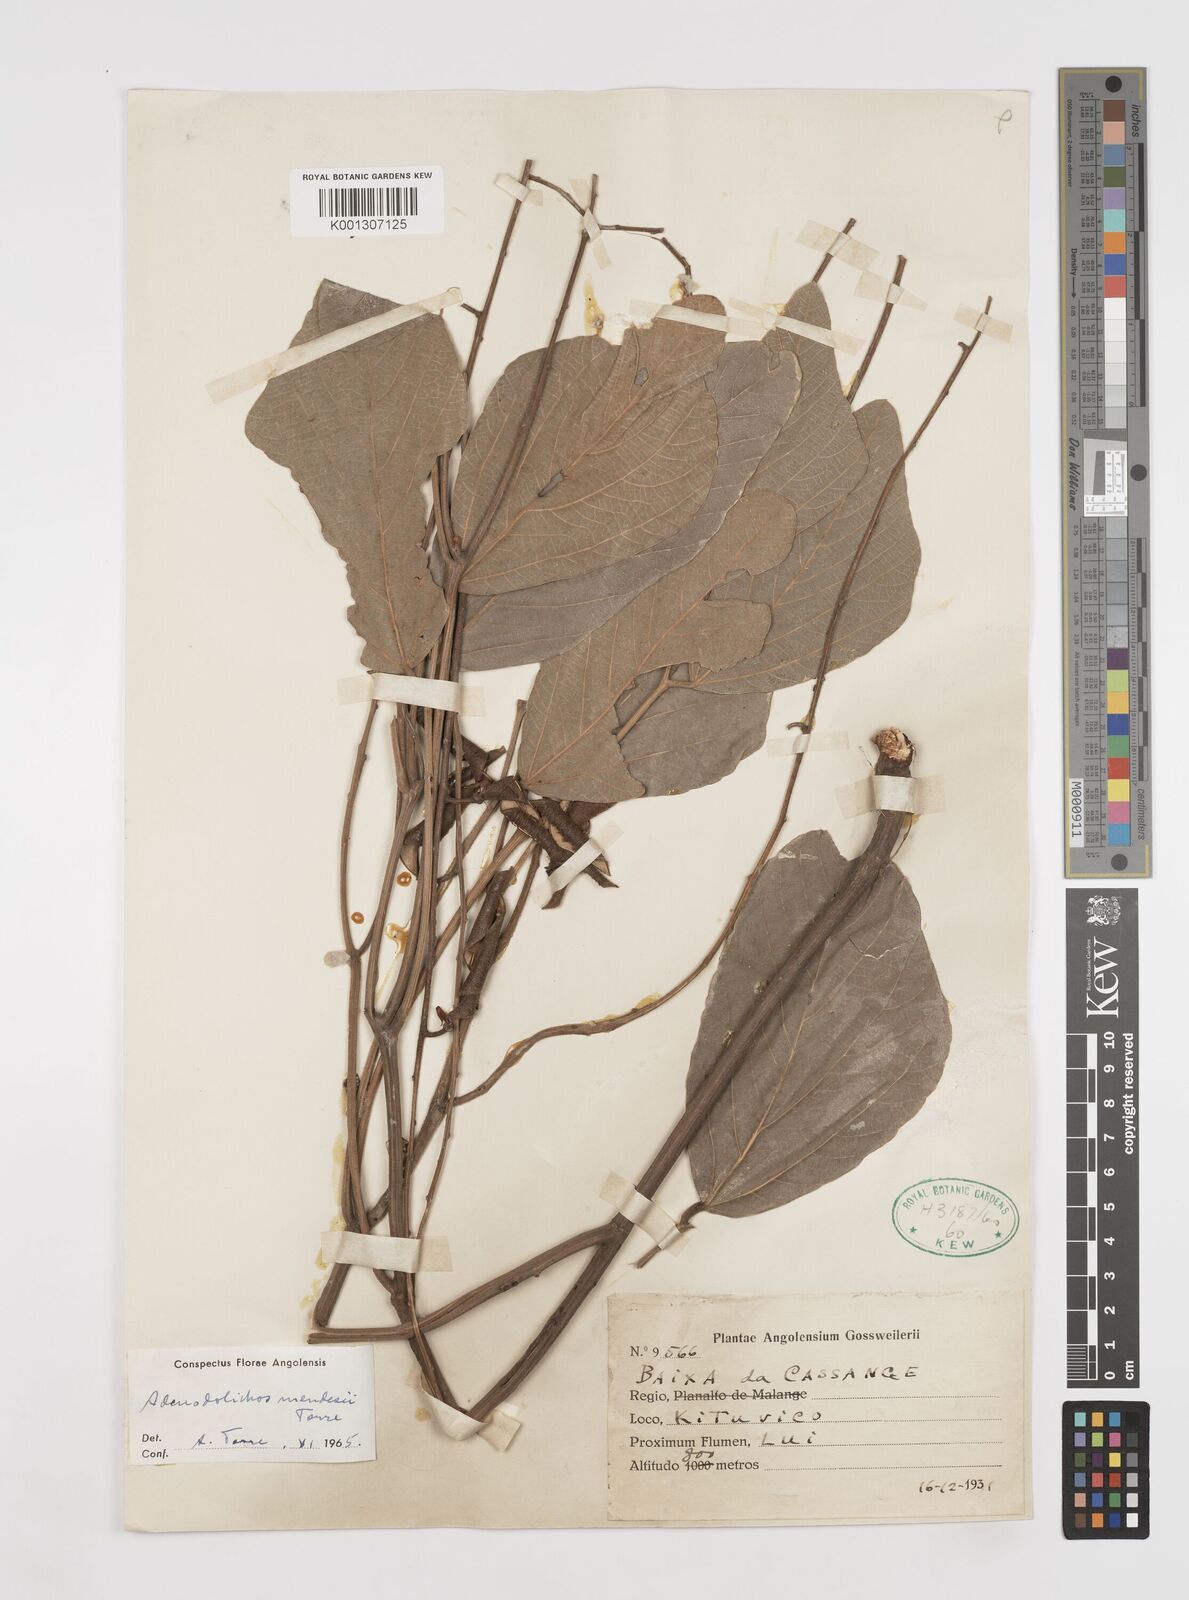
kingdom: Plantae
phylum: Tracheophyta
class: Magnoliopsida
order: Fabales
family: Fabaceae
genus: Adenodolichos
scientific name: Adenodolichos mendesii
